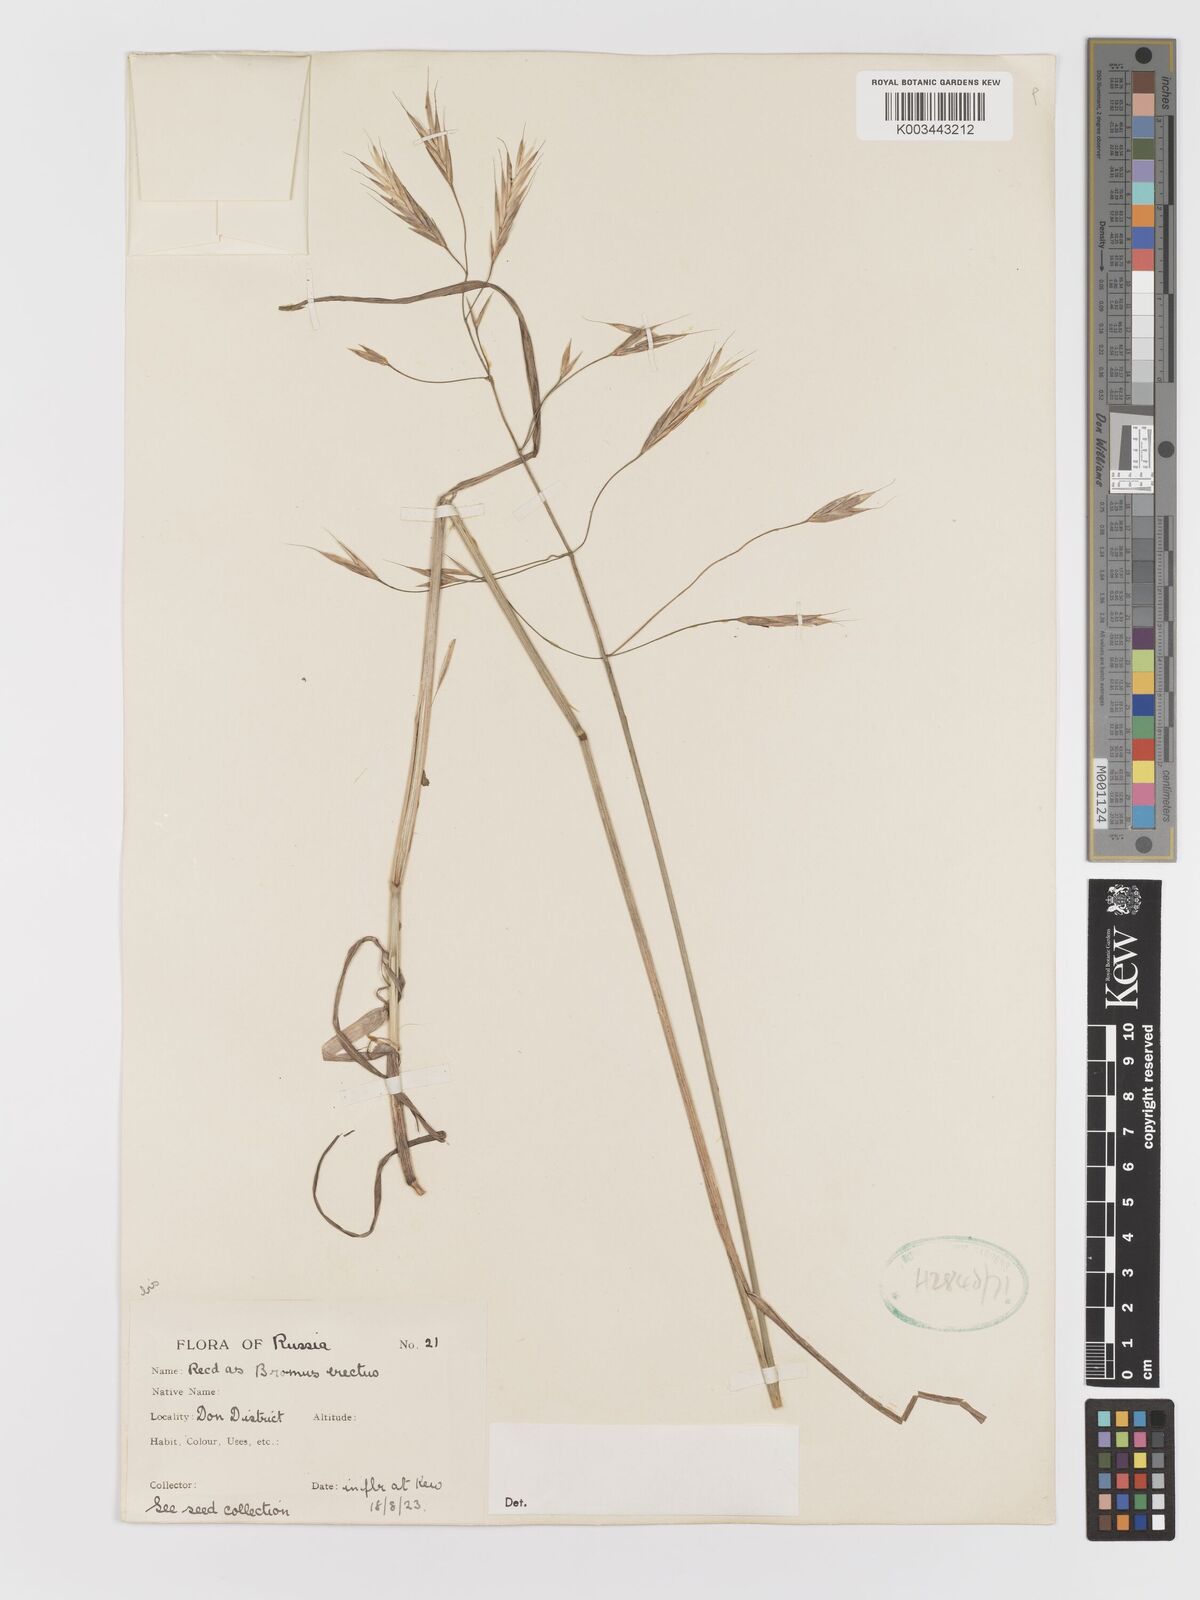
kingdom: Plantae
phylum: Tracheophyta
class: Liliopsida
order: Poales
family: Poaceae
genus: Bromus
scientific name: Bromus
